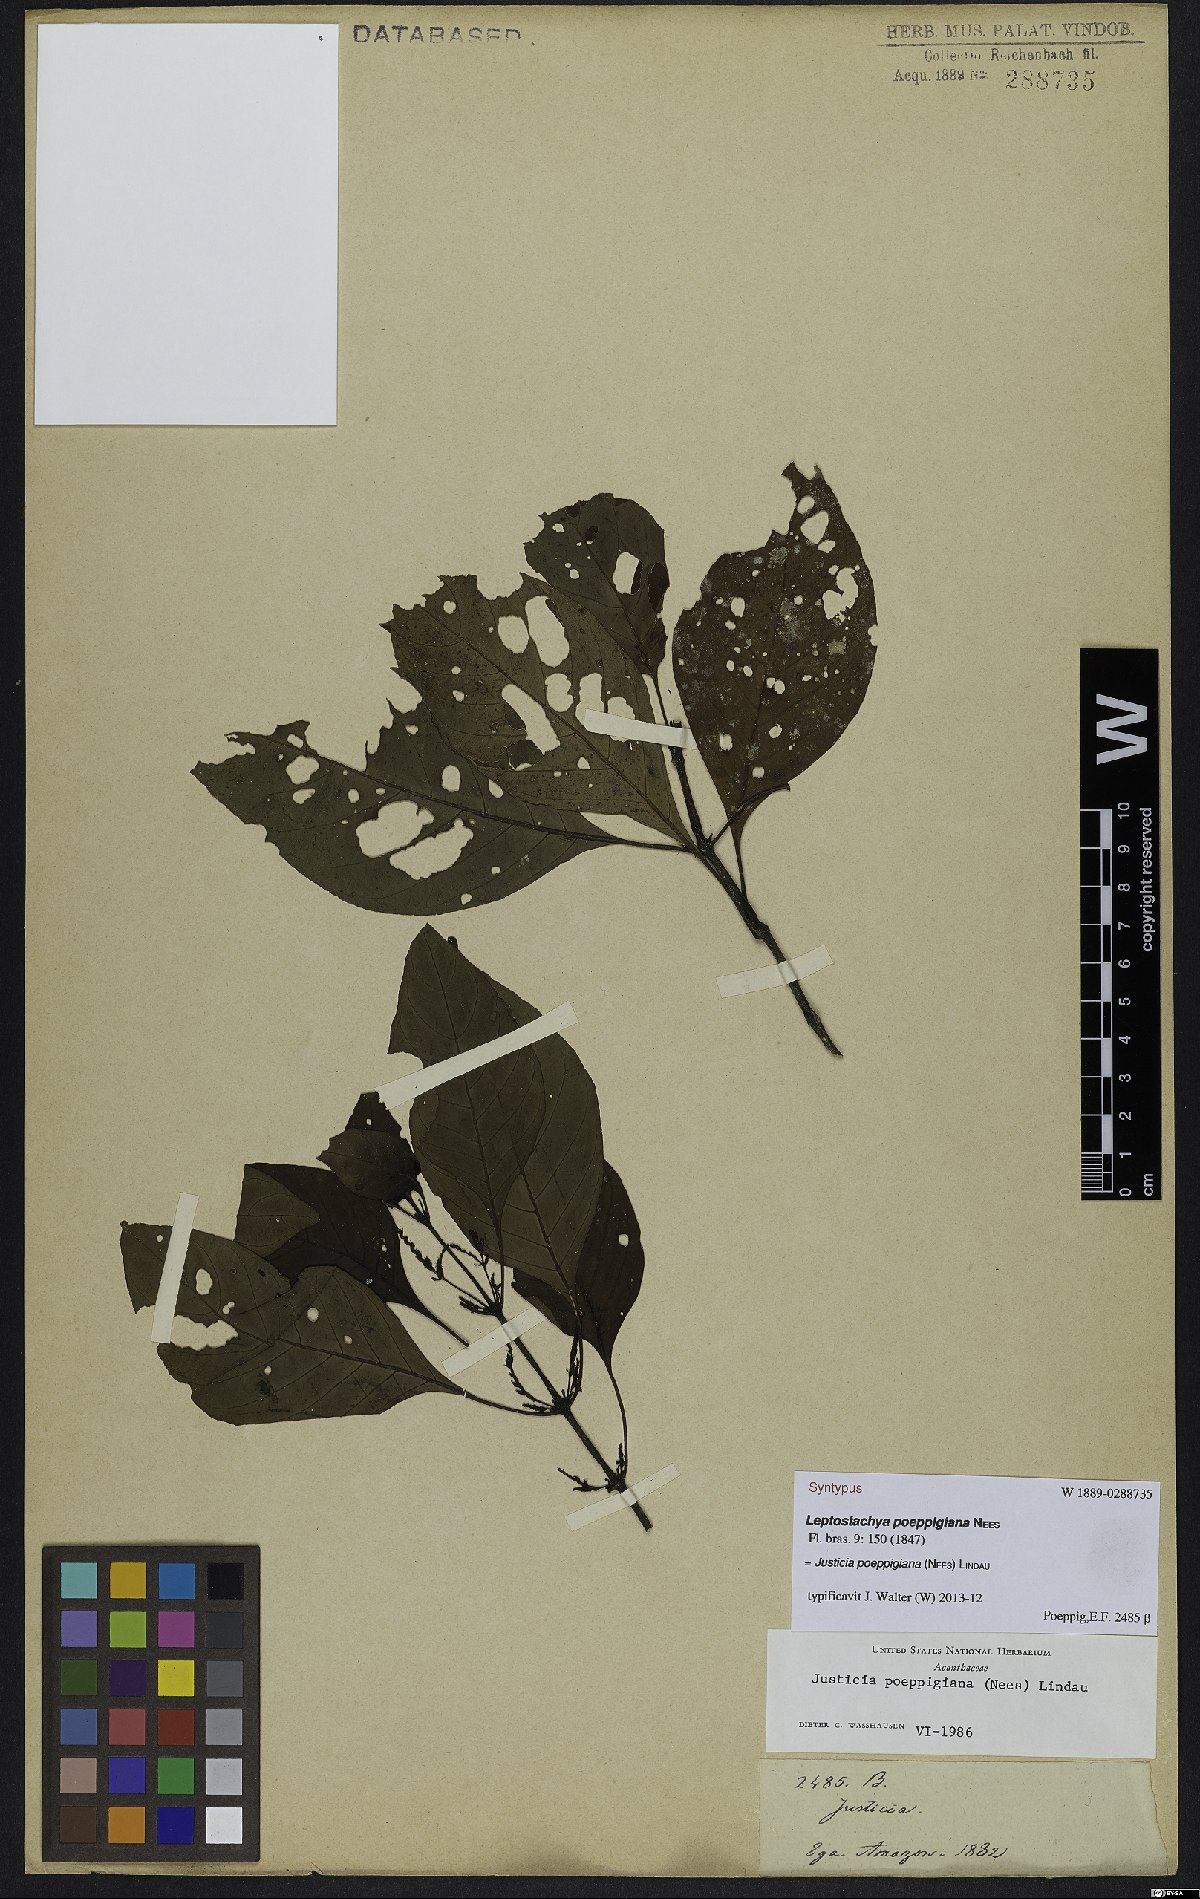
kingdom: Plantae
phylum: Tracheophyta
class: Magnoliopsida
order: Lamiales
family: Acanthaceae
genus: Justicia
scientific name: Justicia poeppigiana
